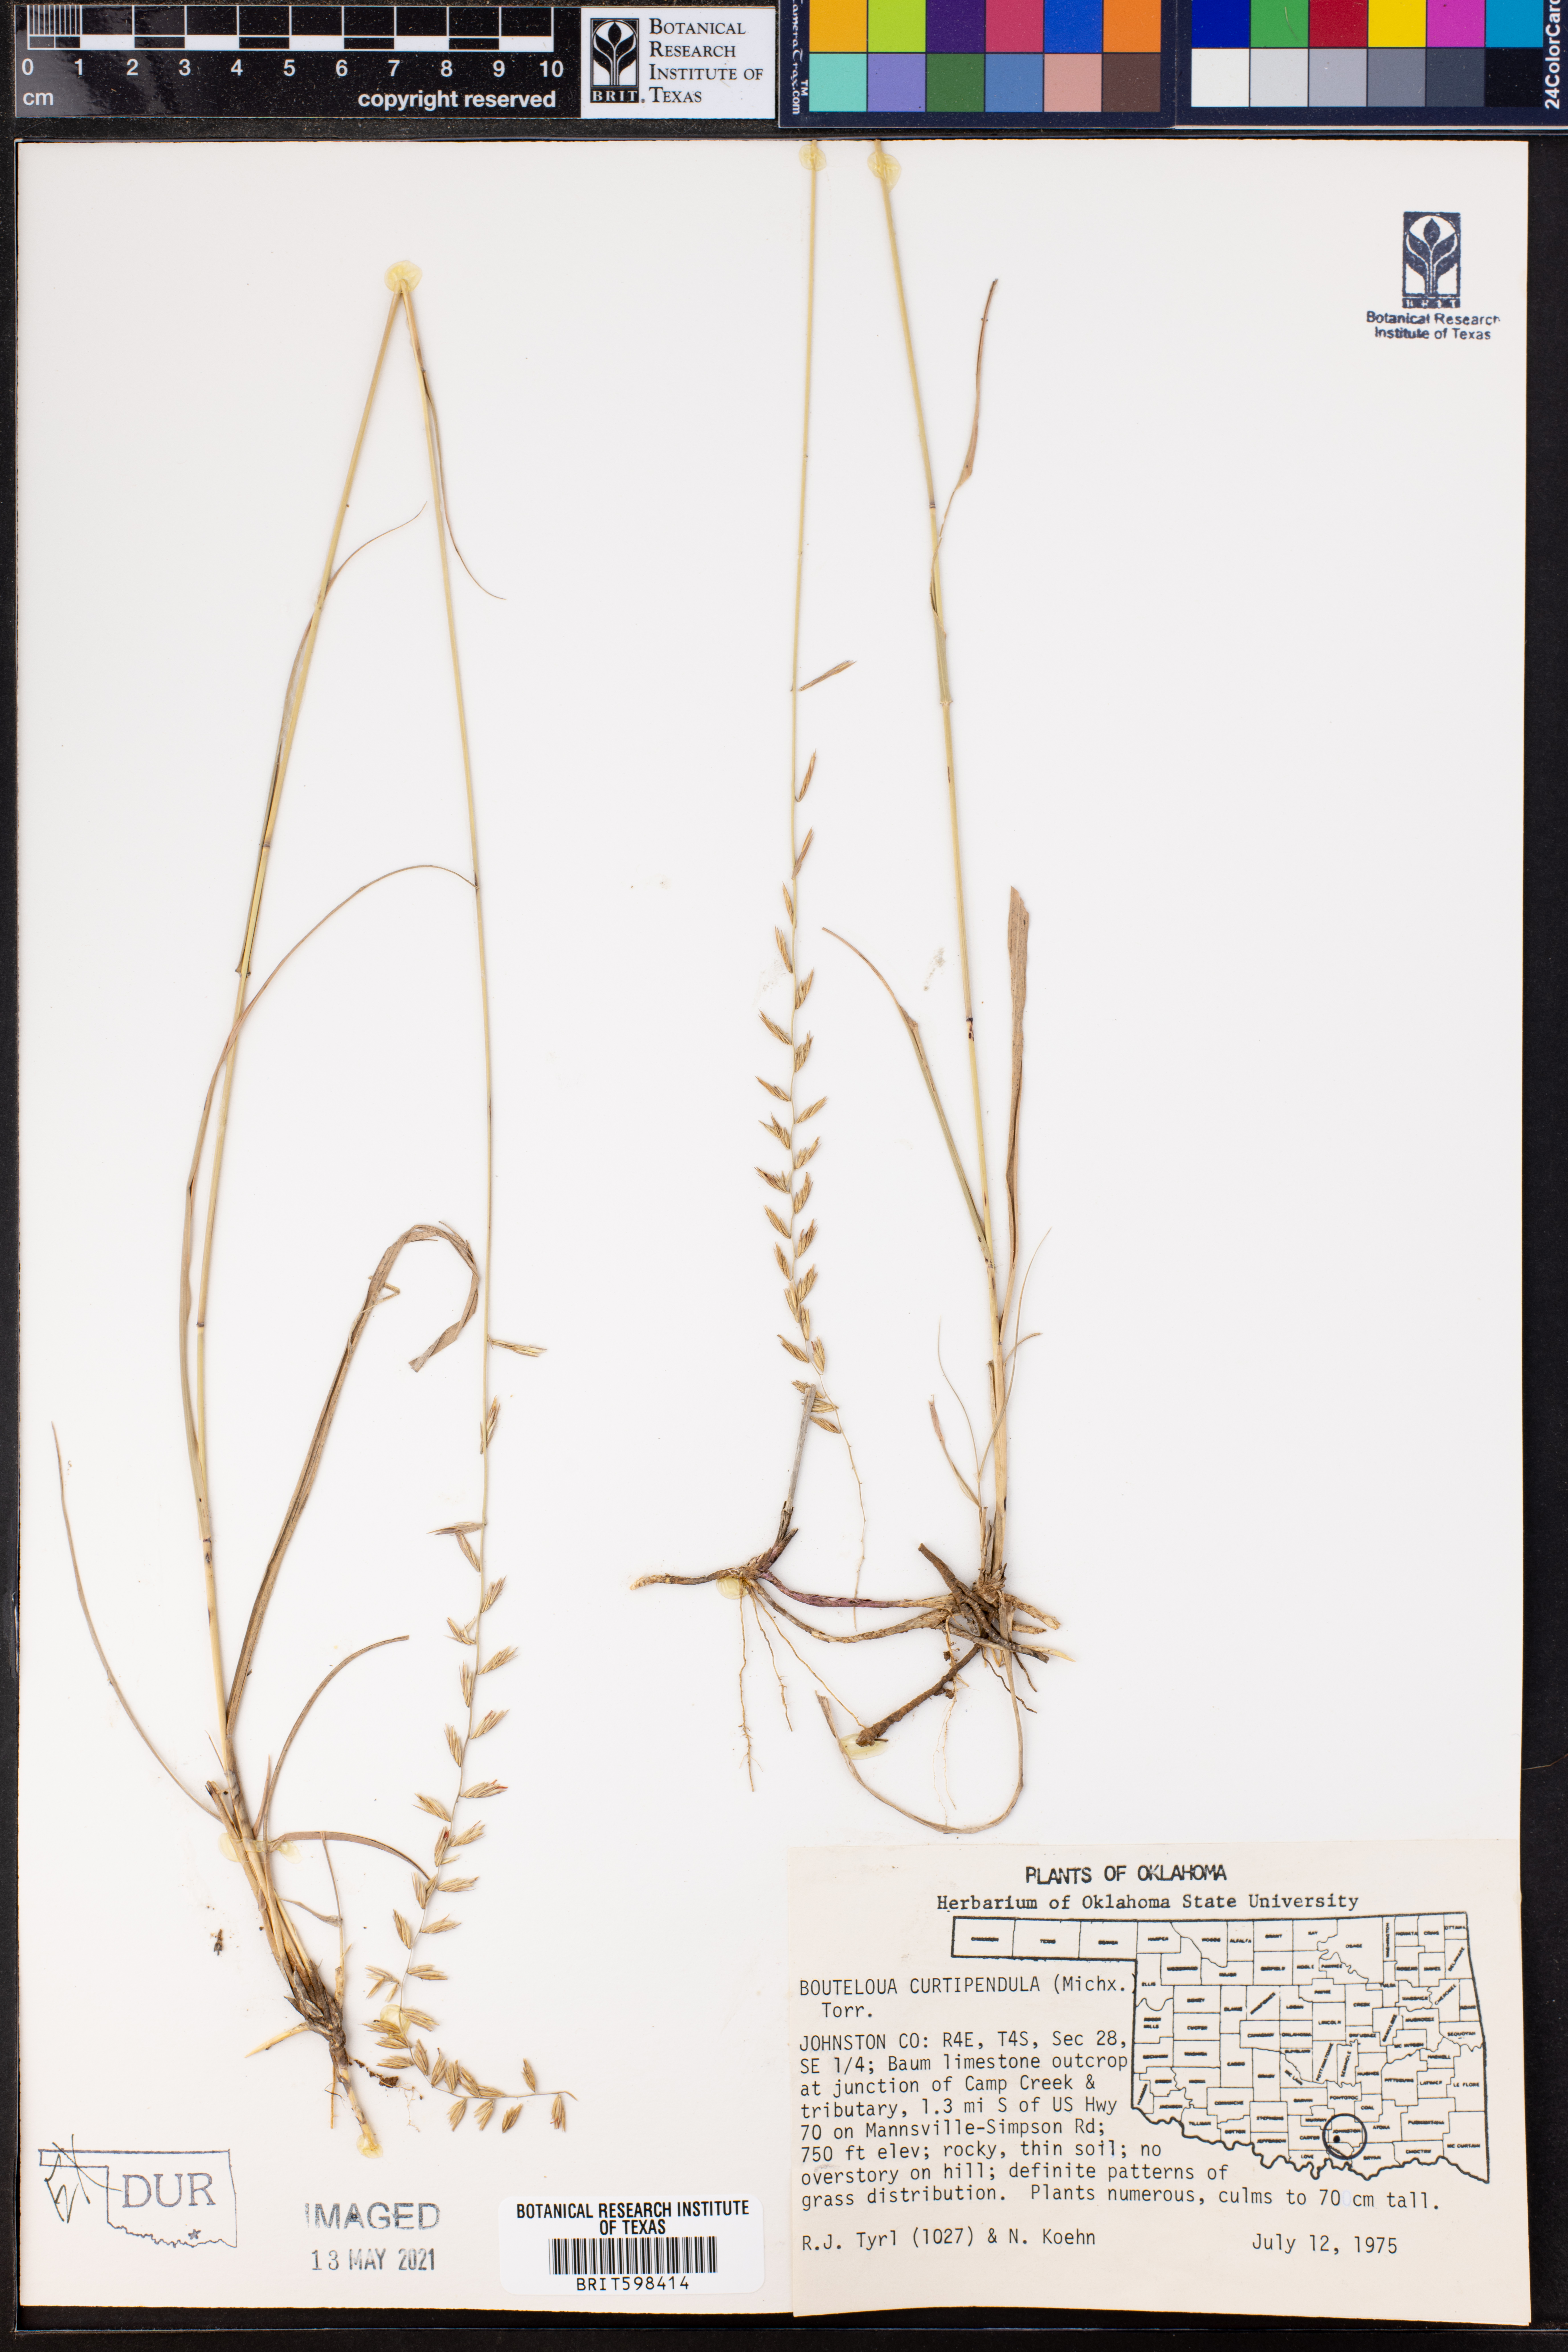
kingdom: Plantae
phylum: Tracheophyta
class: Liliopsida
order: Poales
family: Poaceae
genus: Bouteloua
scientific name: Bouteloua curtipendula
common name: Side-oats grama
